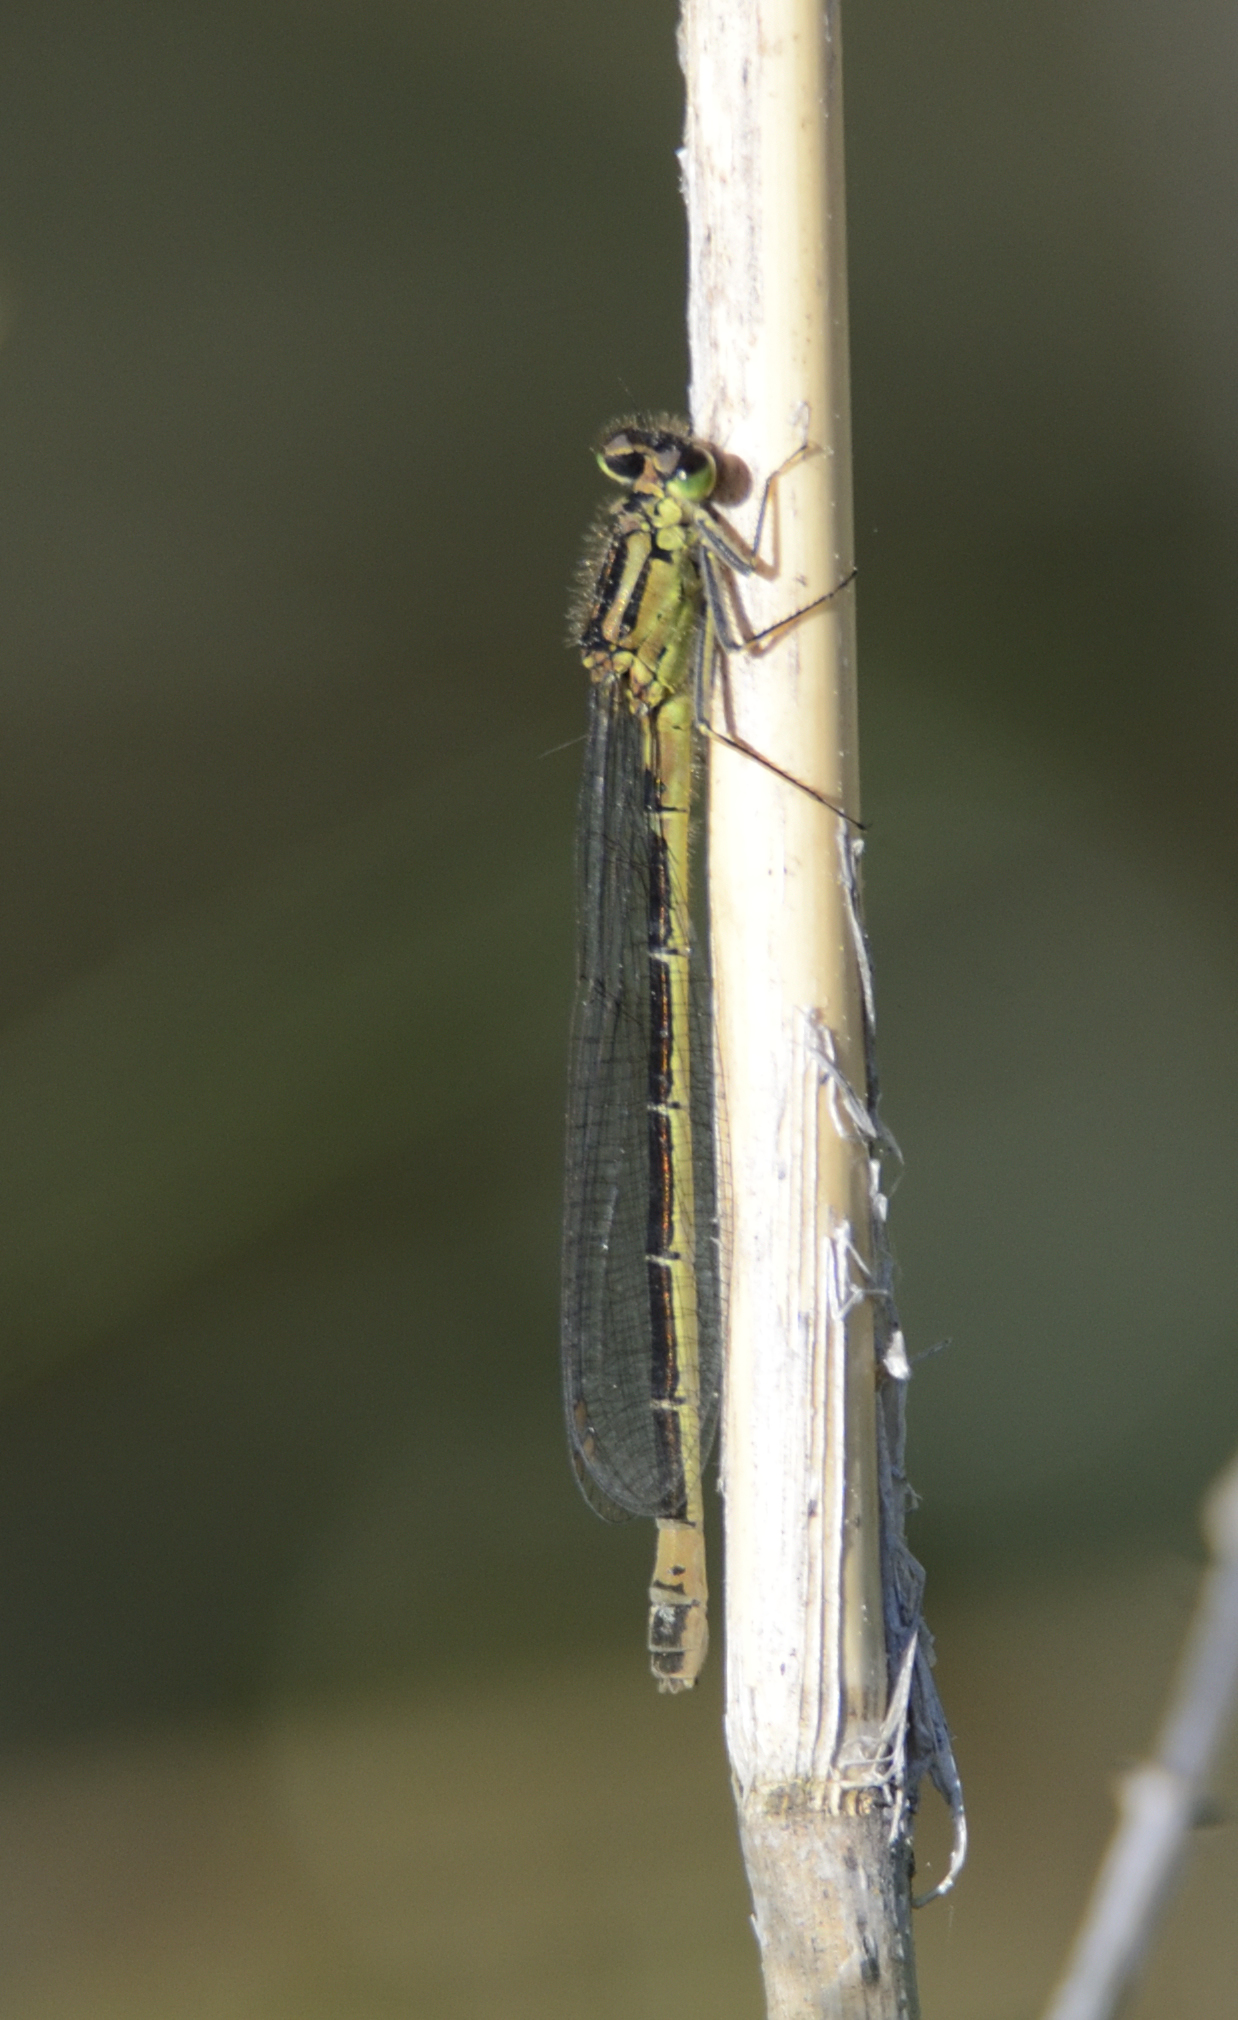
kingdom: Animalia
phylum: Arthropoda
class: Insecta
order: Odonata
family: Coenagrionidae
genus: Coenagrion
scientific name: Coenagrion armatum
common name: Dark bluet
